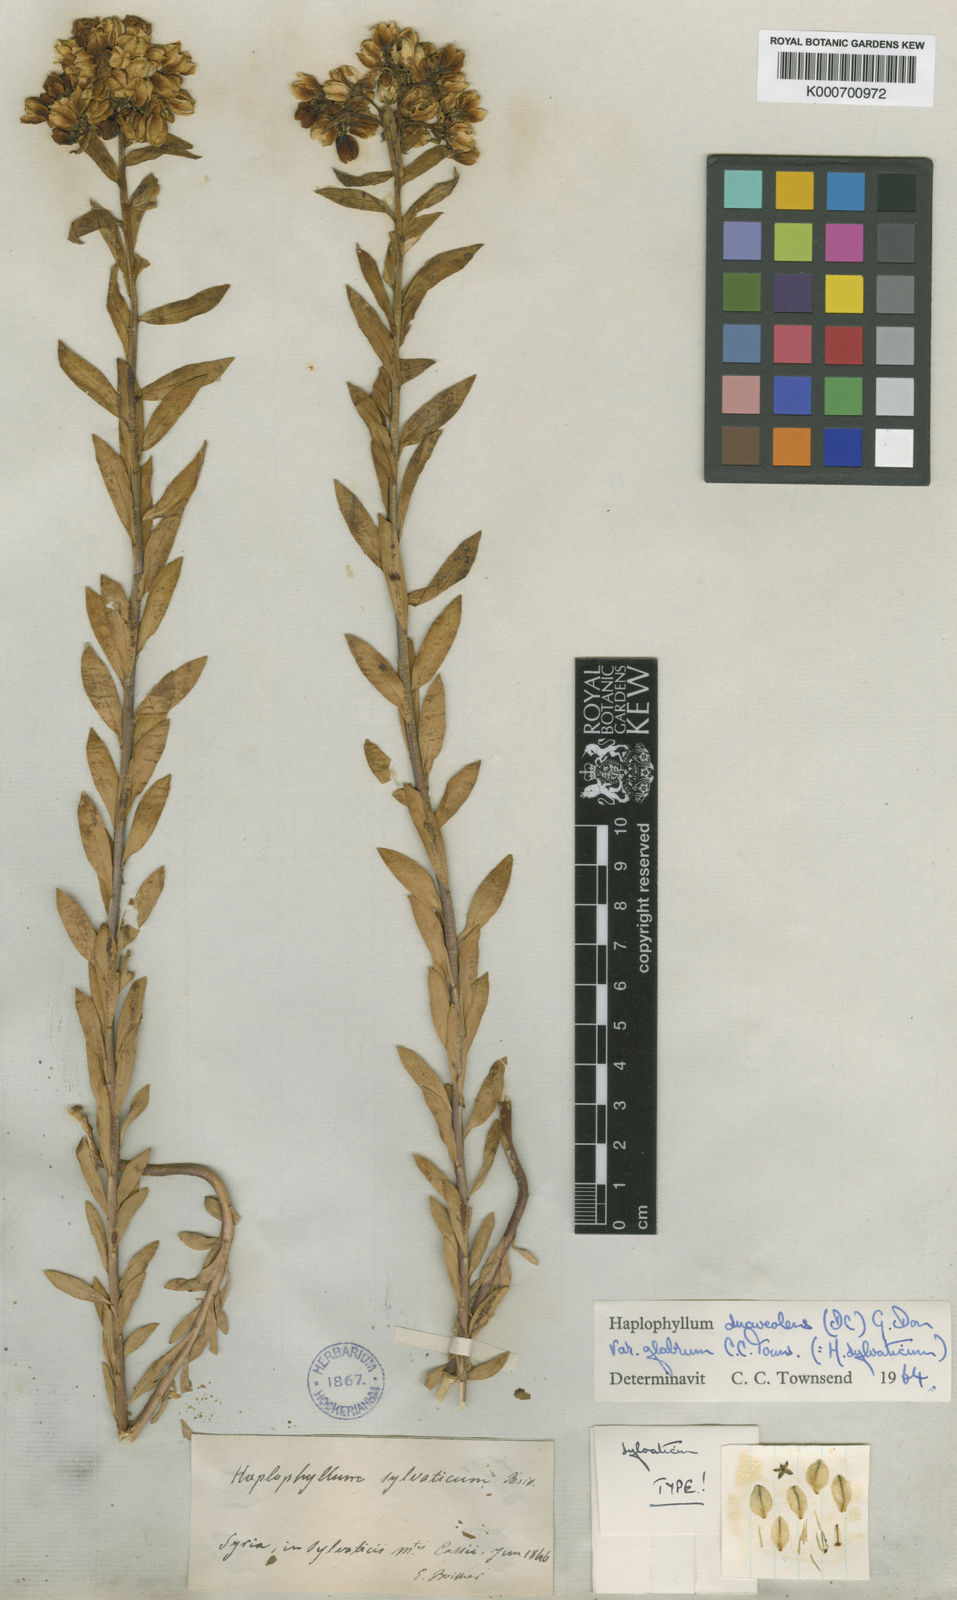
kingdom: Plantae
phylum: Tracheophyta
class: Magnoliopsida
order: Sapindales
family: Rutaceae
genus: Haplophyllum
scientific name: Haplophyllum suaveolens
